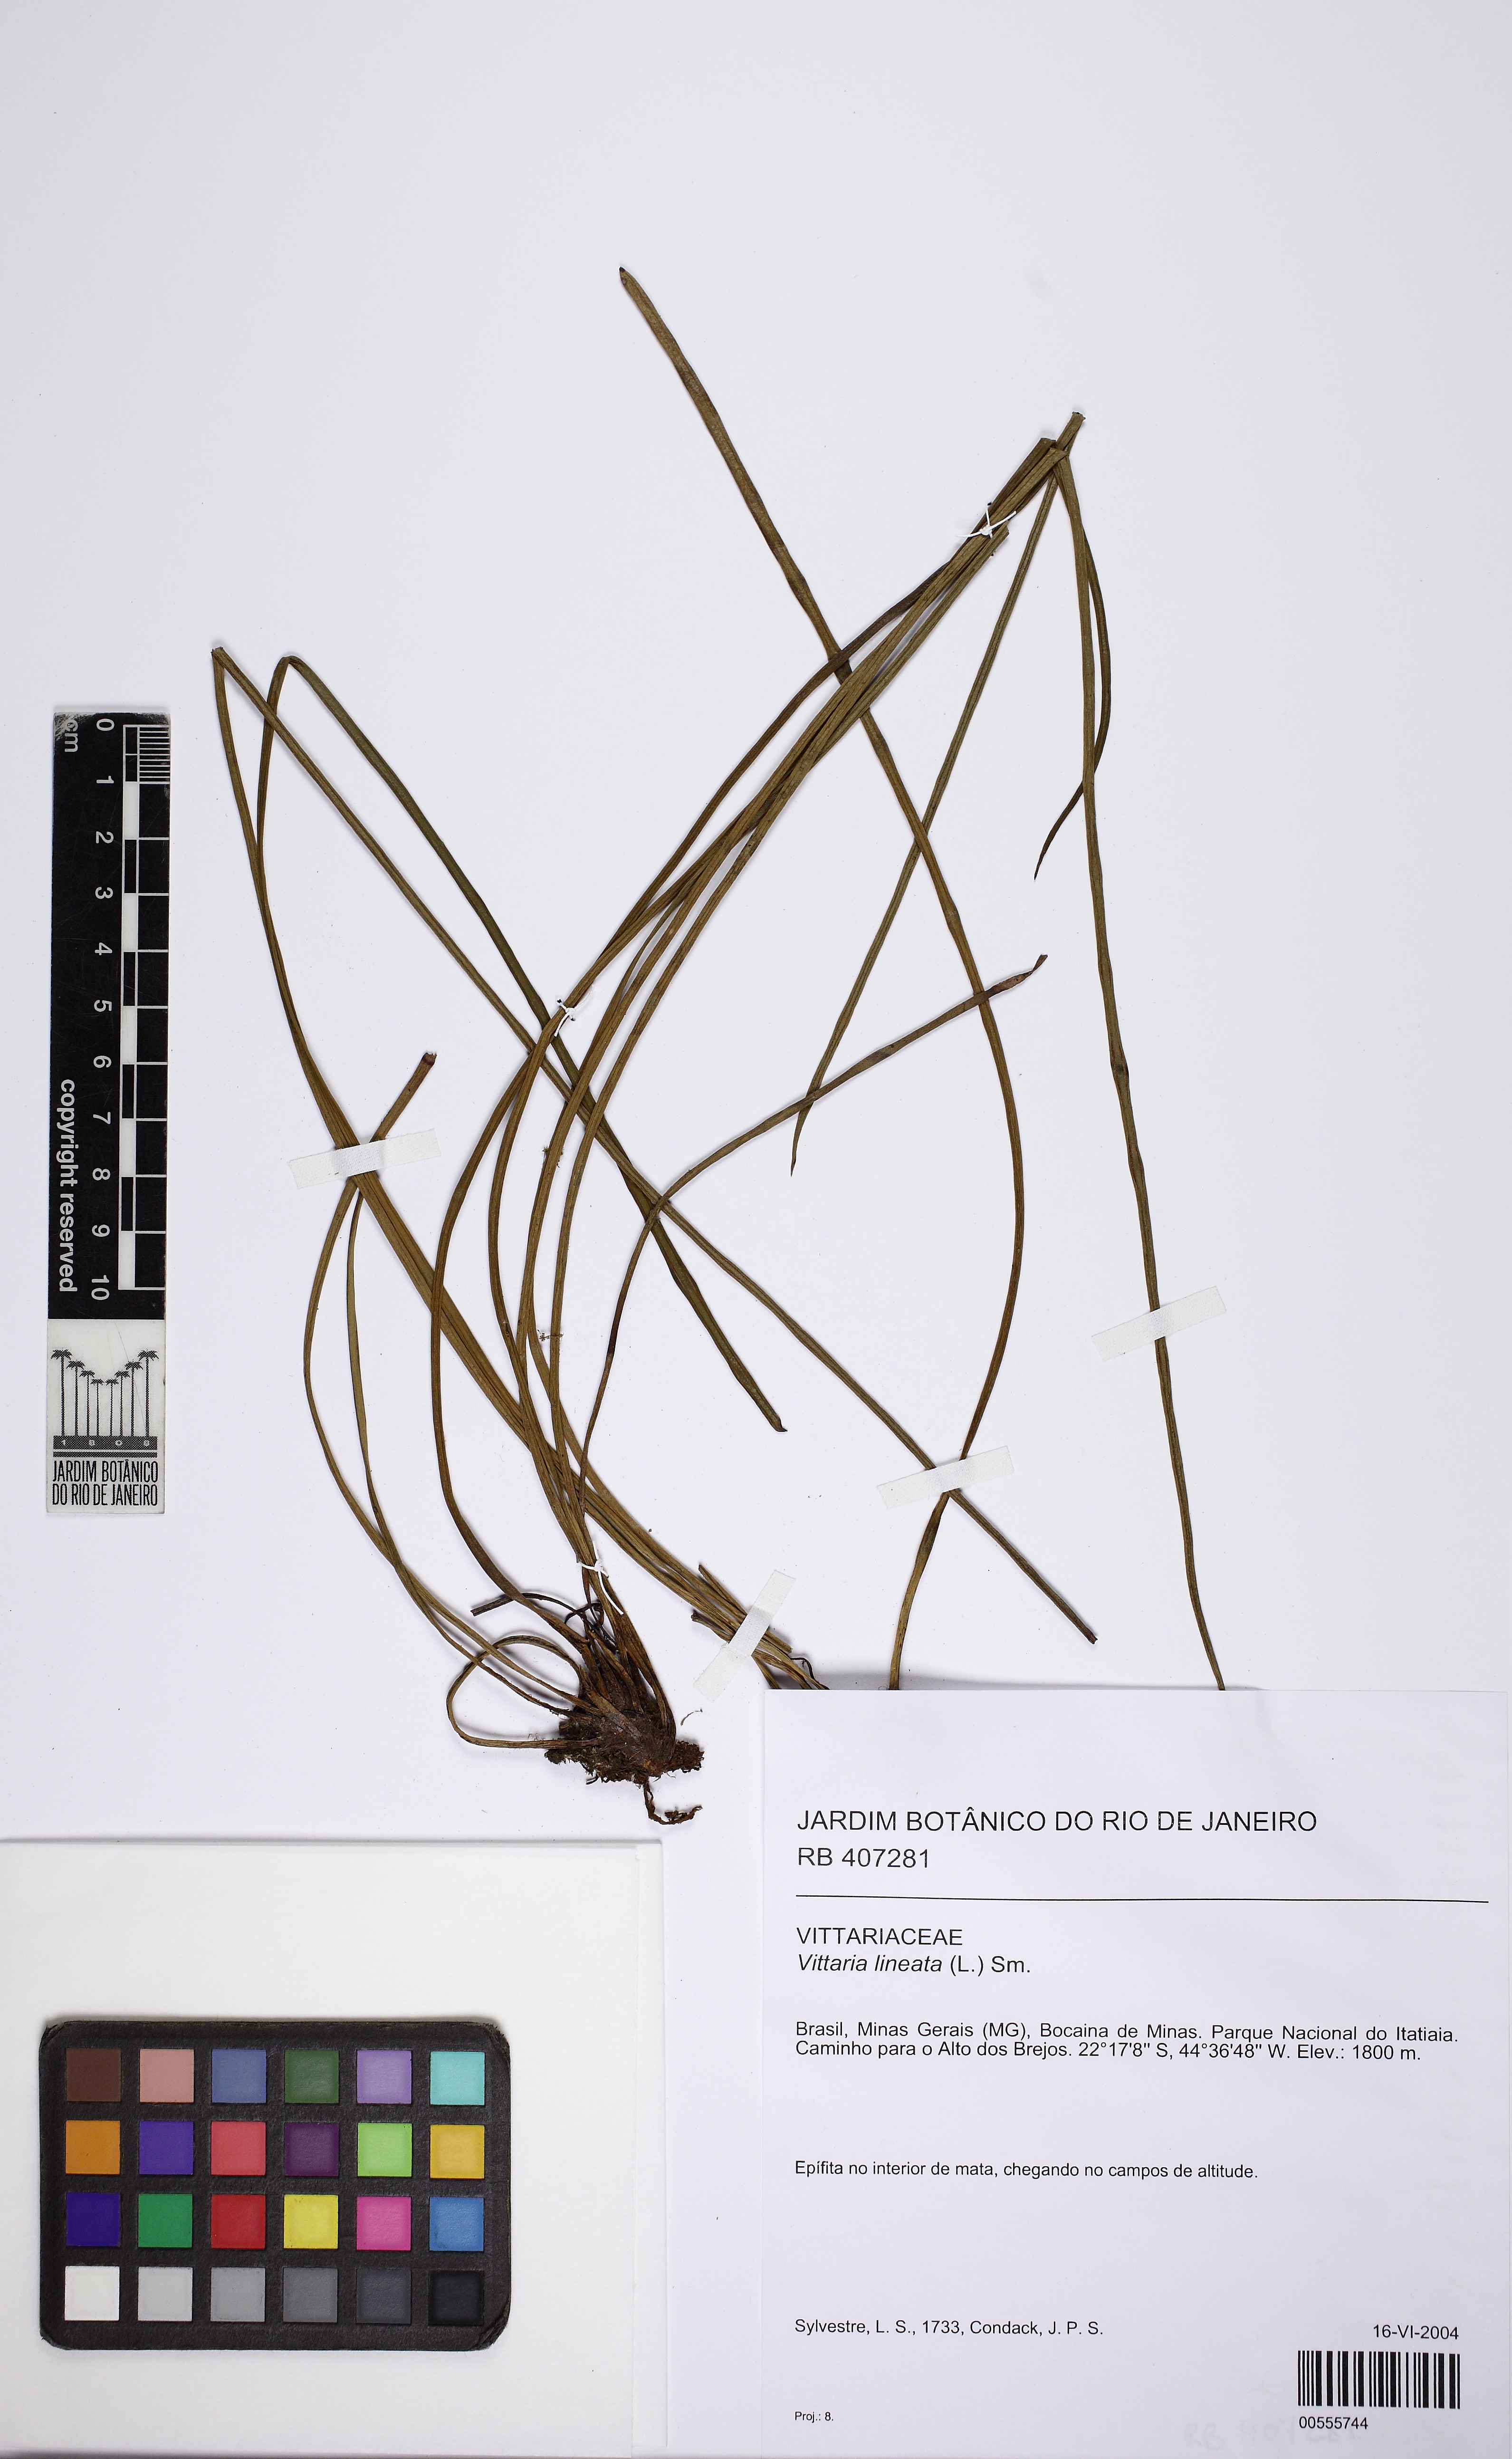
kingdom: Plantae
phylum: Tracheophyta
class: Polypodiopsida
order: Polypodiales
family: Pteridaceae
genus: Vittaria
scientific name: Vittaria lineata
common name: Shoestring fern
